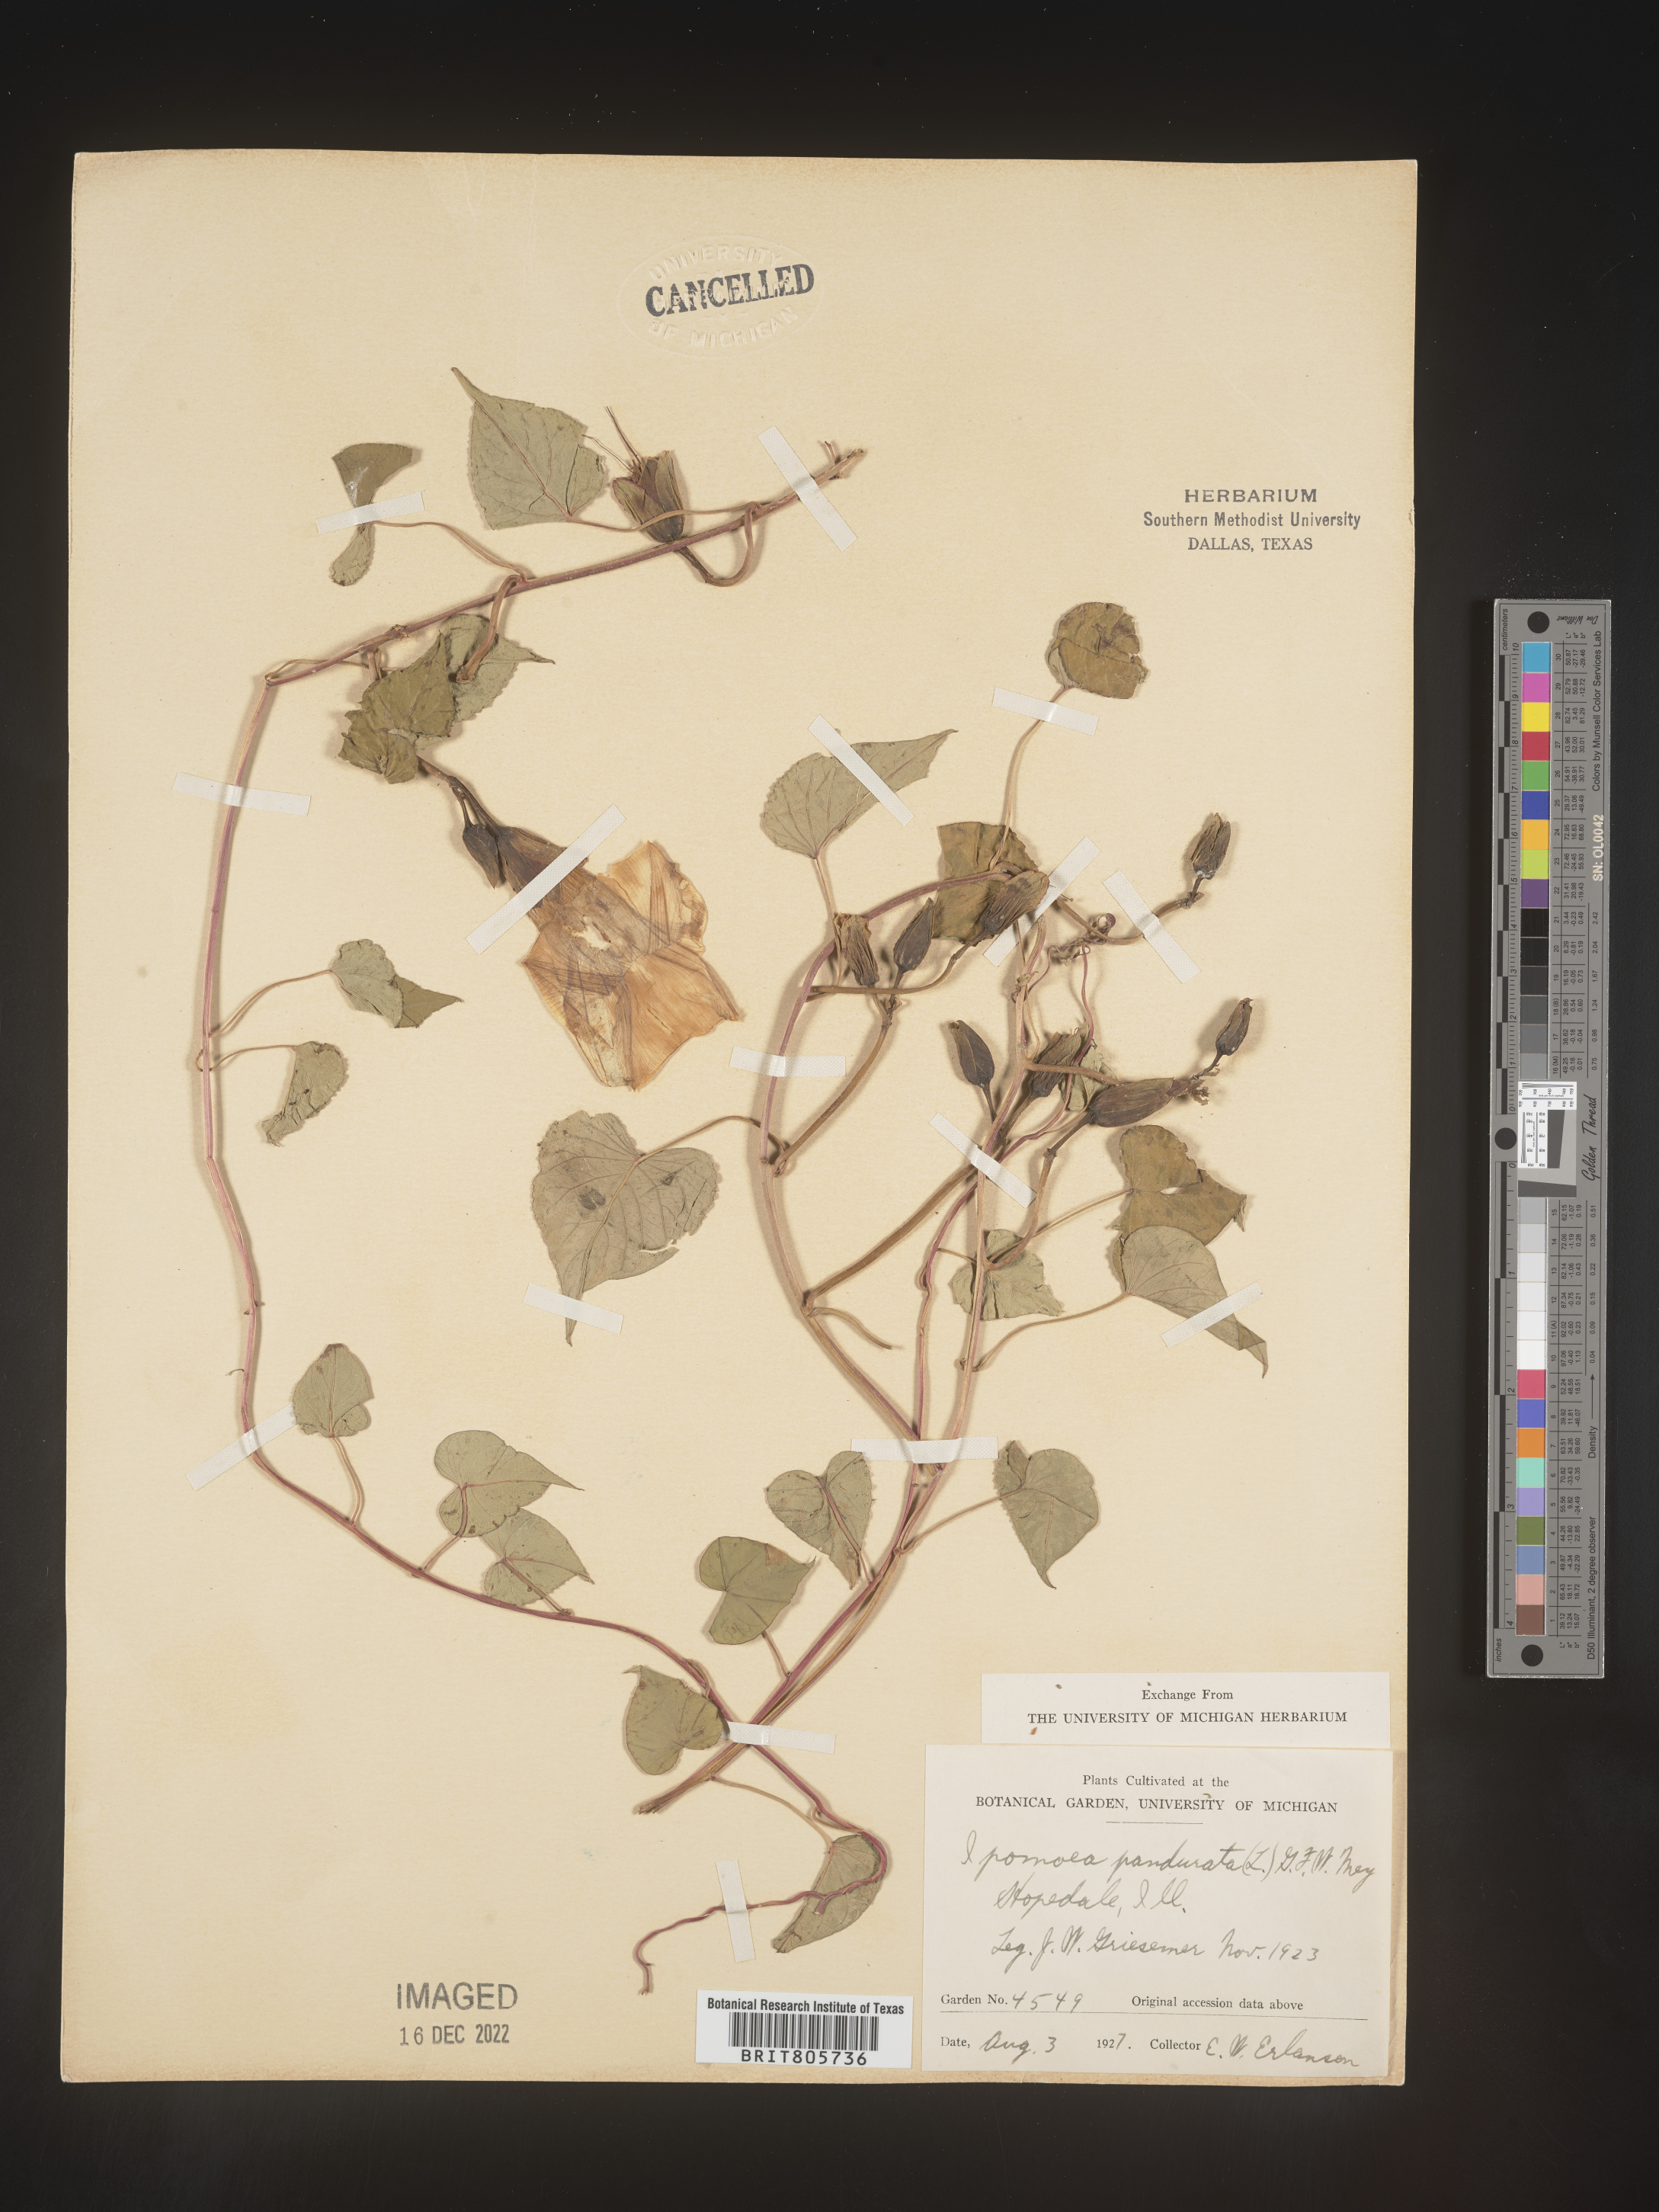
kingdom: Plantae
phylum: Tracheophyta
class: Magnoliopsida
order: Solanales
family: Convolvulaceae
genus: Ipomoea
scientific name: Ipomoea
